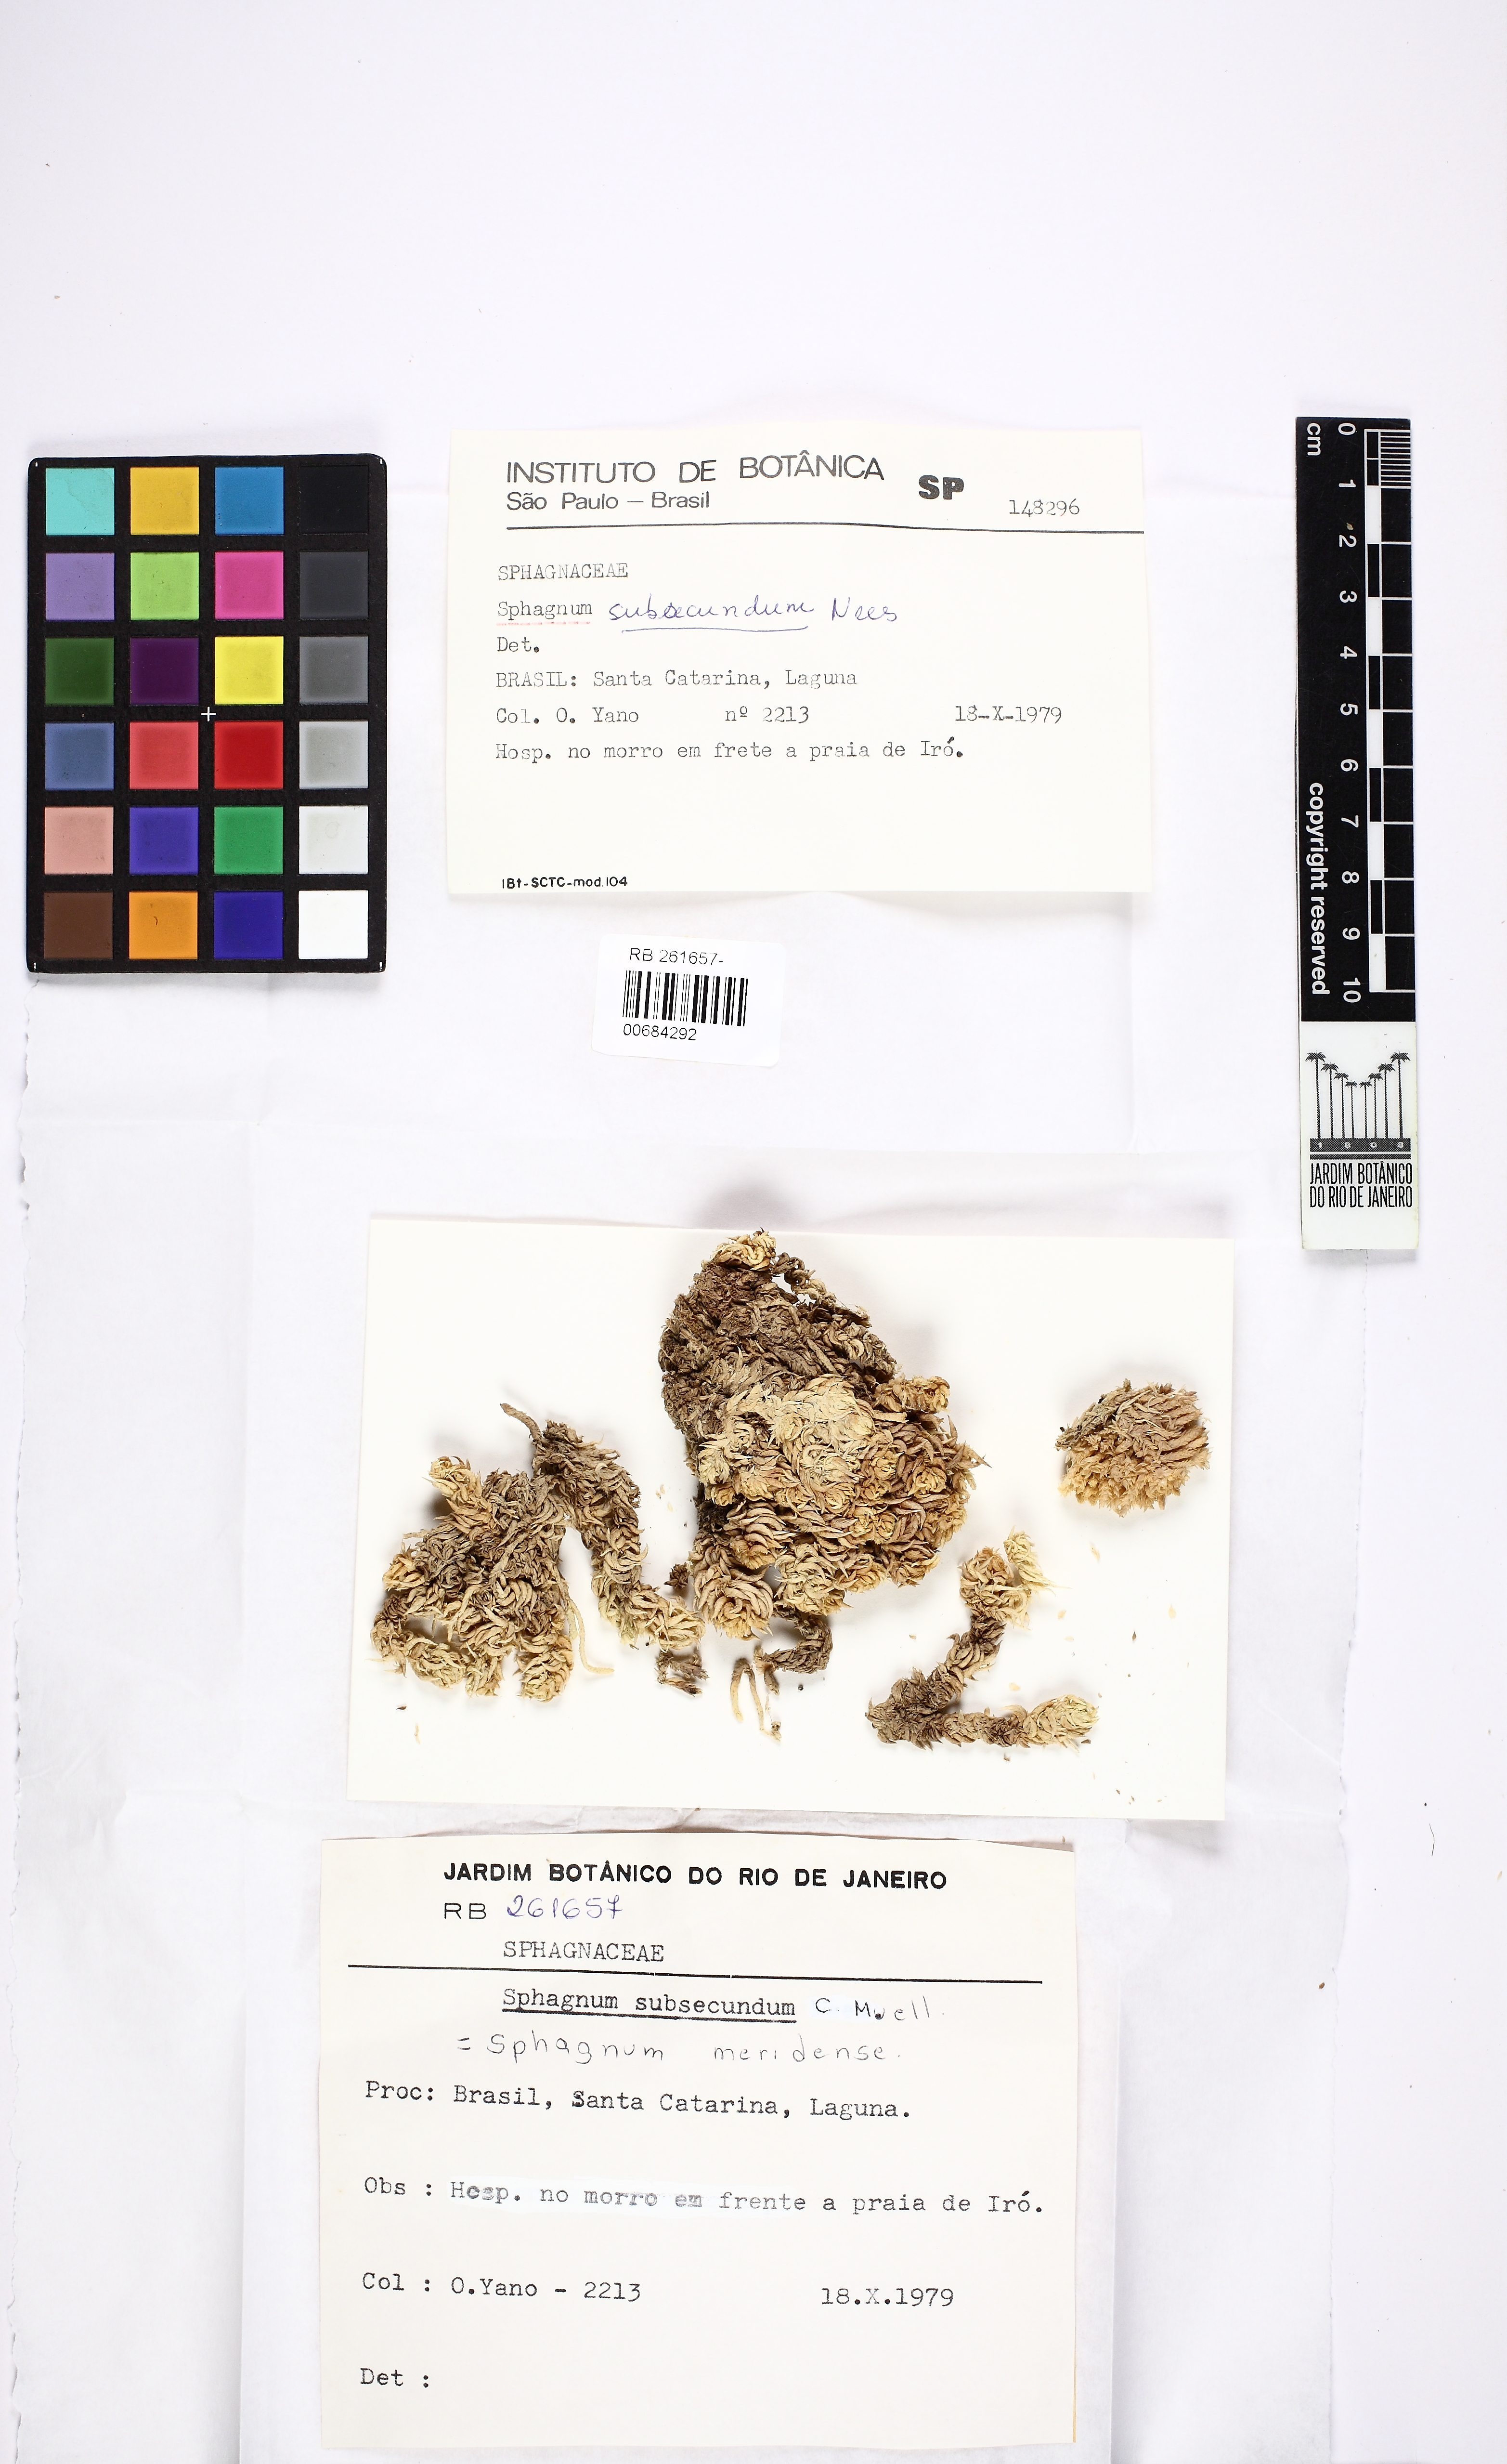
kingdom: Plantae
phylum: Bryophyta
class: Sphagnopsida
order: Sphagnales
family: Sphagnaceae
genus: Sphagnum
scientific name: Sphagnum subsecundum
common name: Orange peat moss
